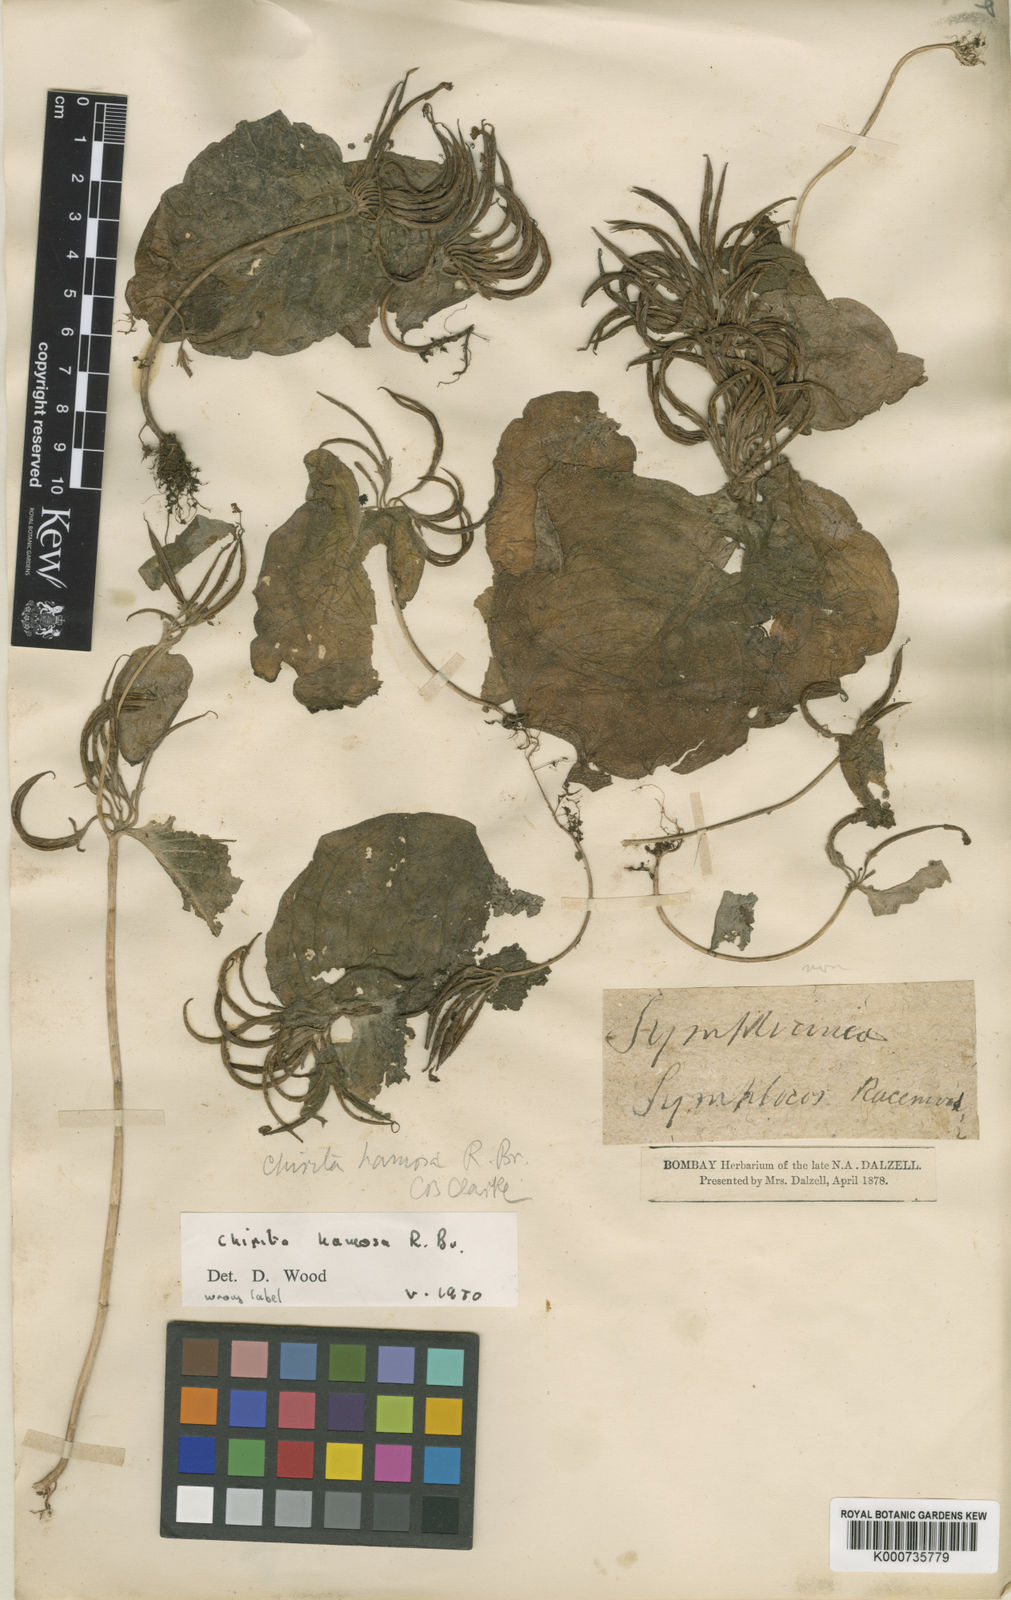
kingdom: Plantae
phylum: Tracheophyta
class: Magnoliopsida
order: Lamiales
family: Gesneriaceae
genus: Microchirita
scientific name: Microchirita hamosa
